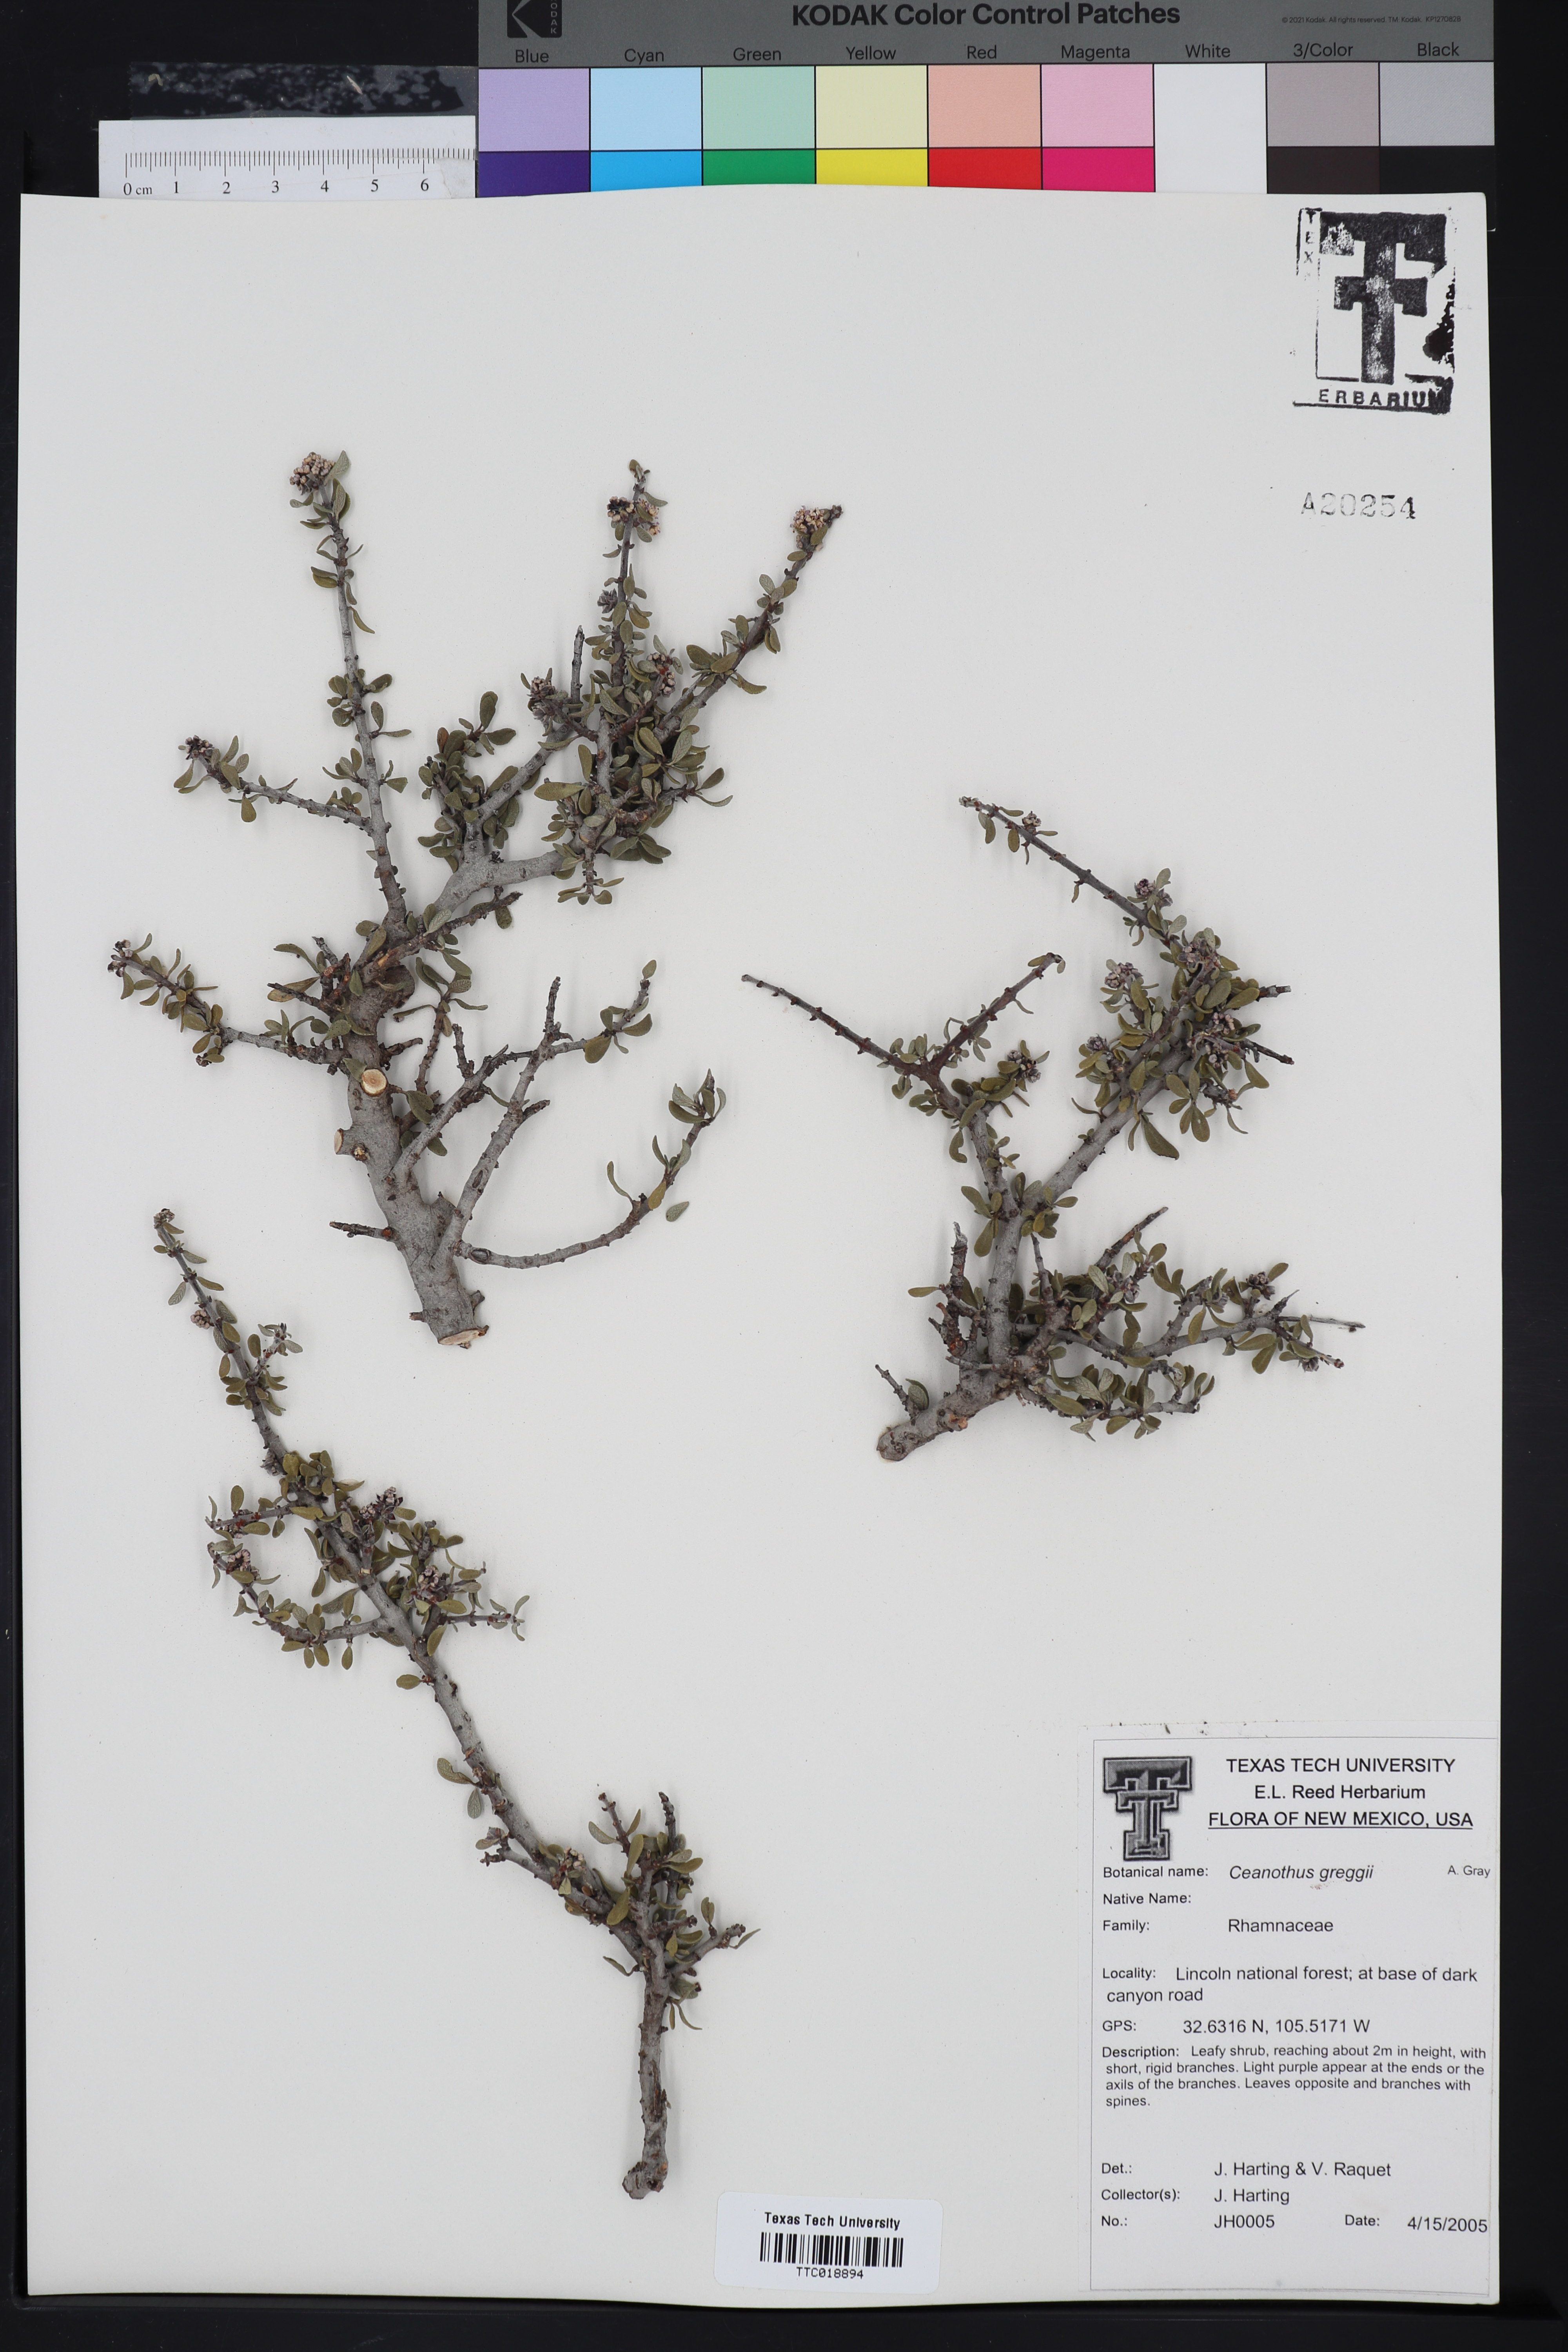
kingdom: Plantae
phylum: Tracheophyta
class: Magnoliopsida
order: Rosales
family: Rhamnaceae
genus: Ceanothus
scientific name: Ceanothus pauciflorus
